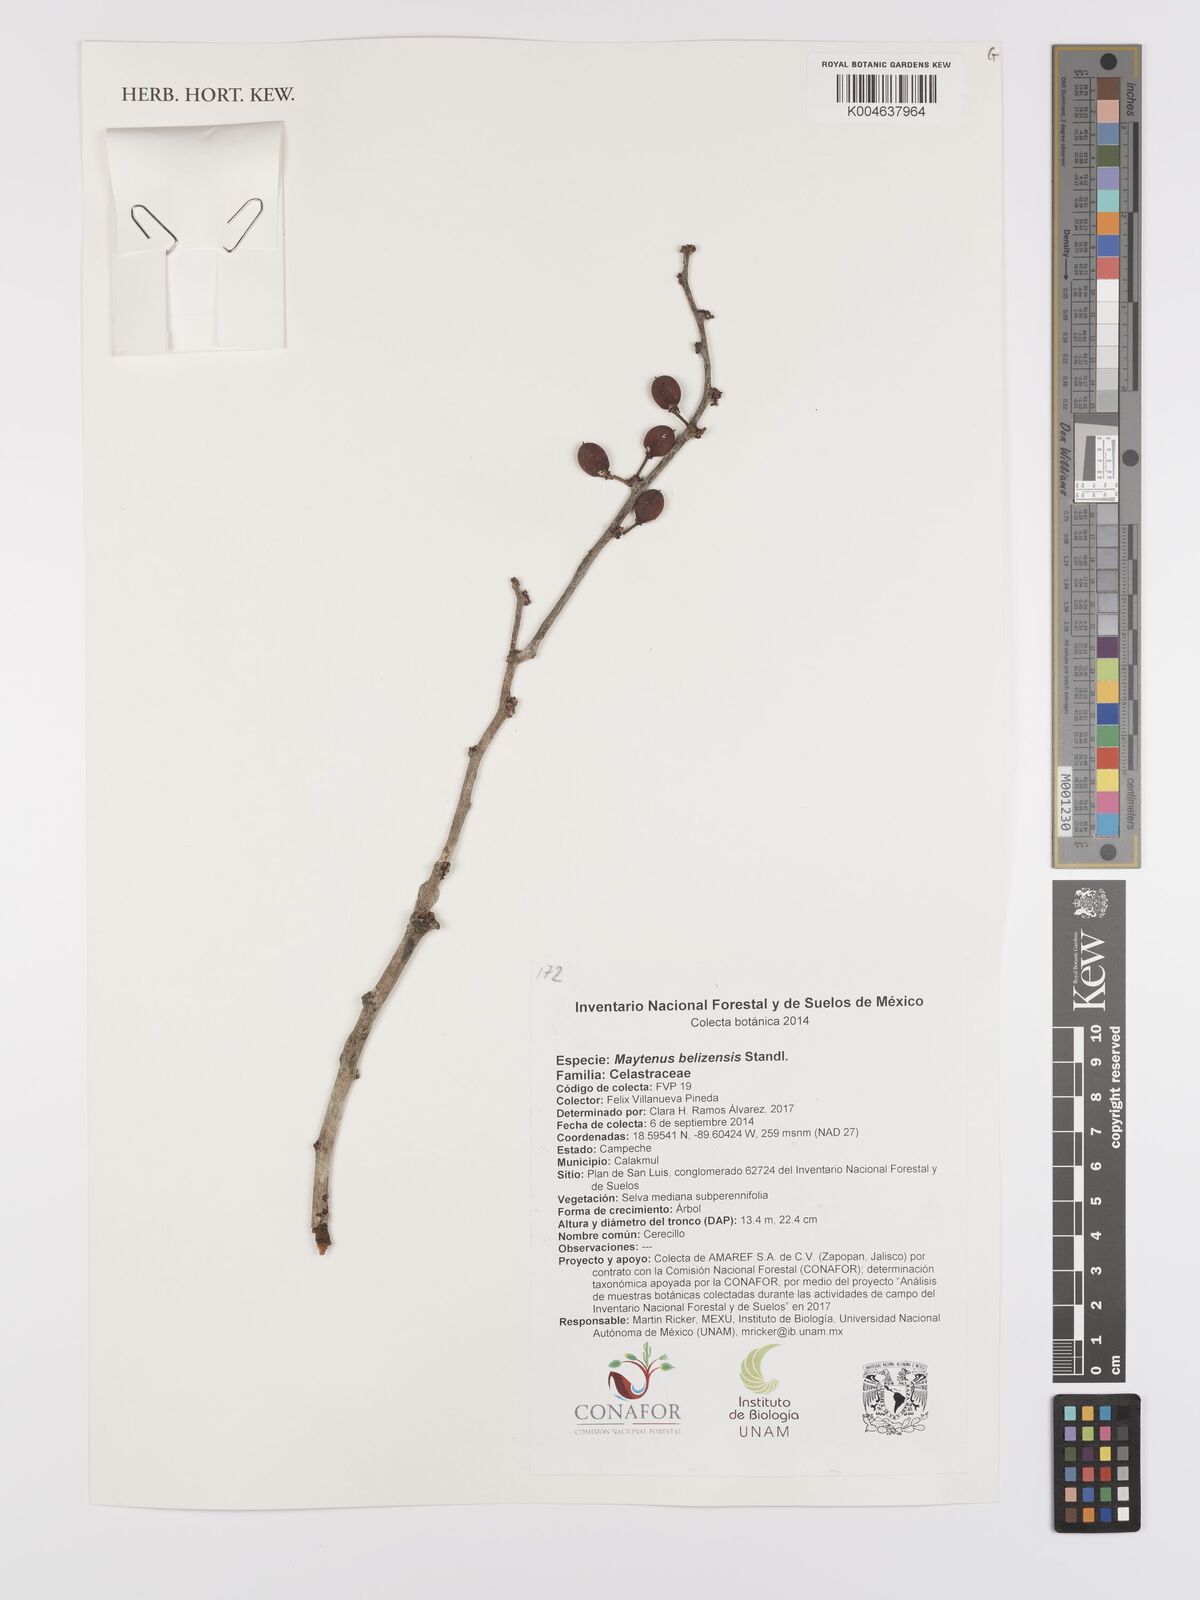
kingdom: Plantae
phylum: Tracheophyta
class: Magnoliopsida
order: Celastrales
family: Celastraceae
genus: Monteverdia
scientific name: Monteverdia belizensis
